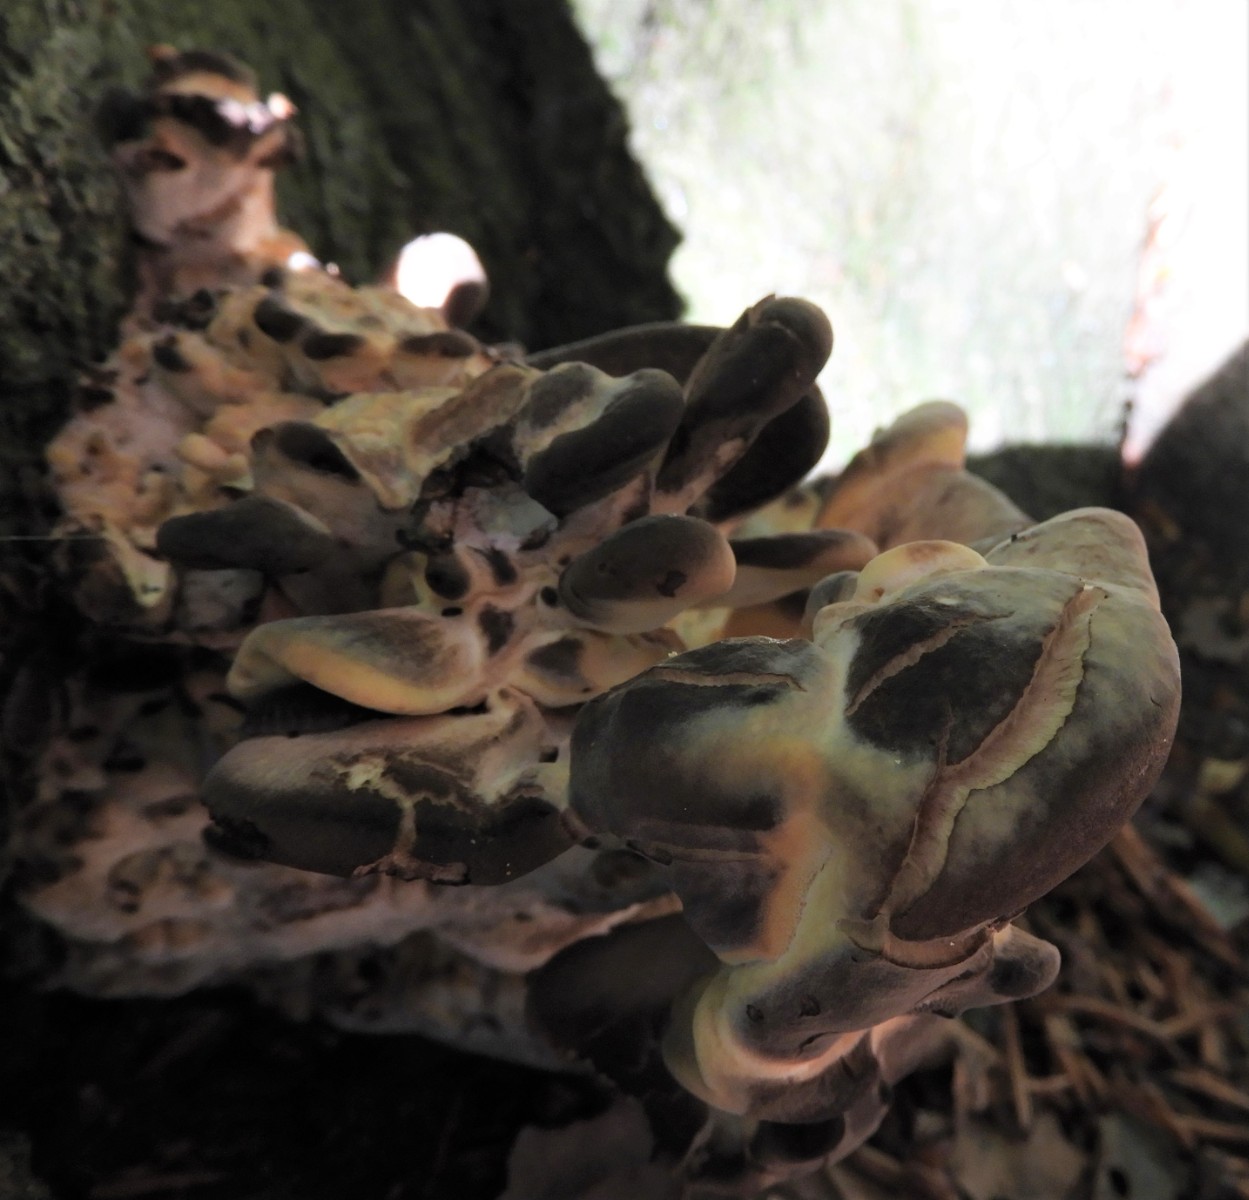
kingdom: Fungi
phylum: Basidiomycota
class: Agaricomycetes
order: Polyporales
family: Meripilaceae
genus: Meripilus
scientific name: Meripilus giganteus
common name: kæmpeporesvamp
